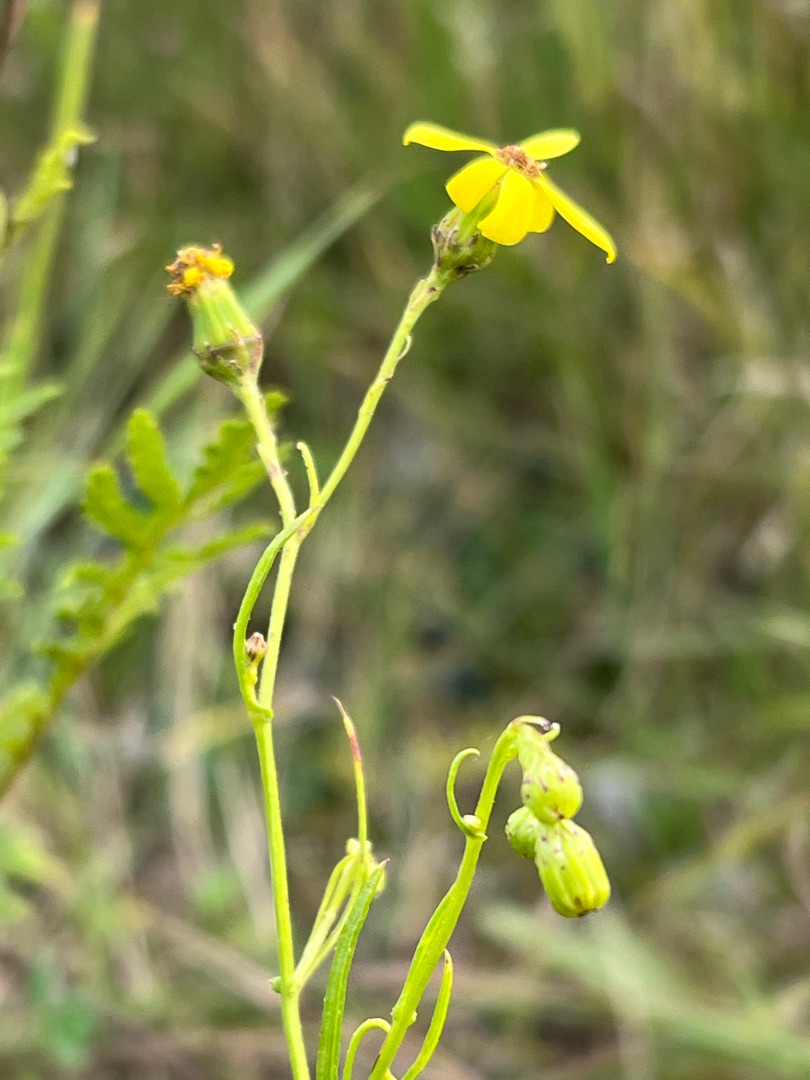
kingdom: Plantae
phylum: Tracheophyta
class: Magnoliopsida
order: Asterales
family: Asteraceae
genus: Senecio
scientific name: Senecio inaequidens
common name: Smalbladet brandbæger
